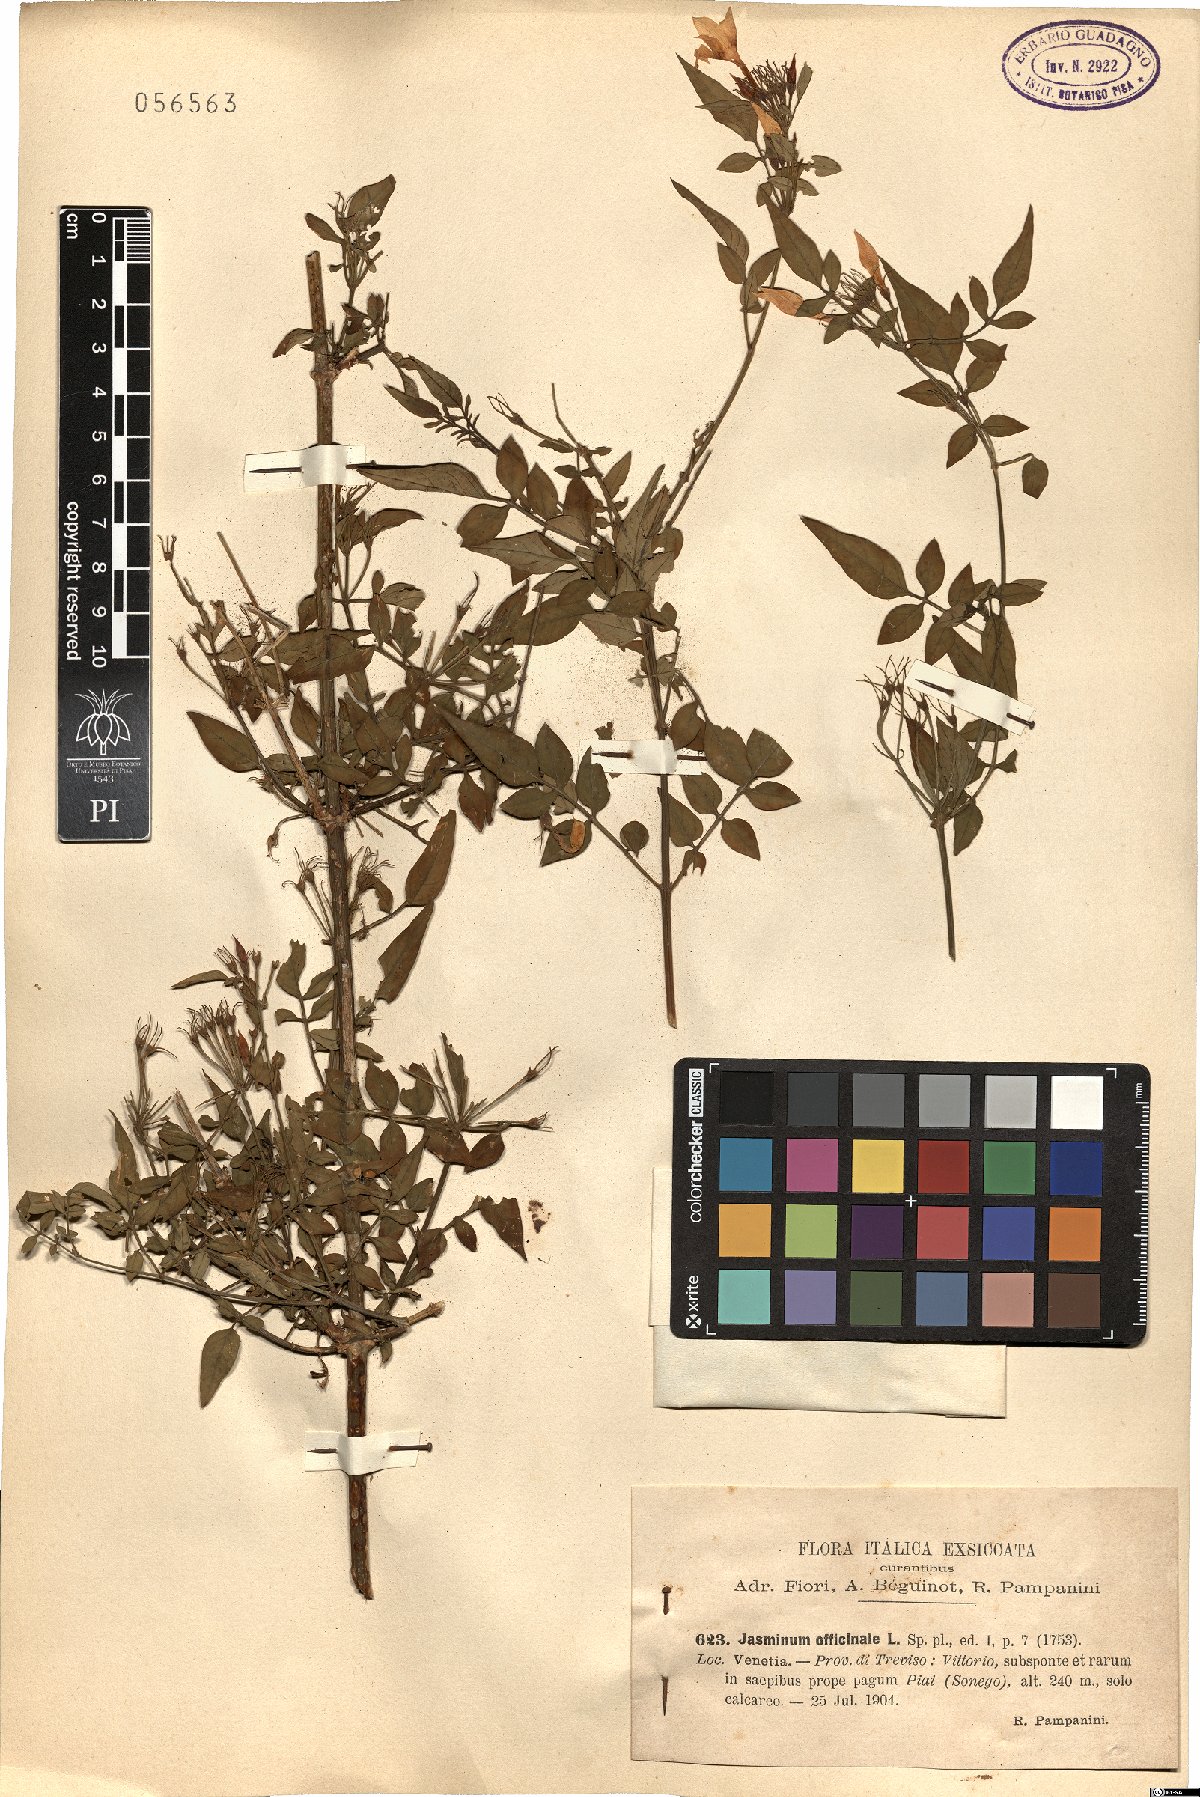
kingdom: Plantae
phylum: Tracheophyta
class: Magnoliopsida
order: Lamiales
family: Oleaceae
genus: Jasminum
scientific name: Jasminum officinale
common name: Summer jasmine
